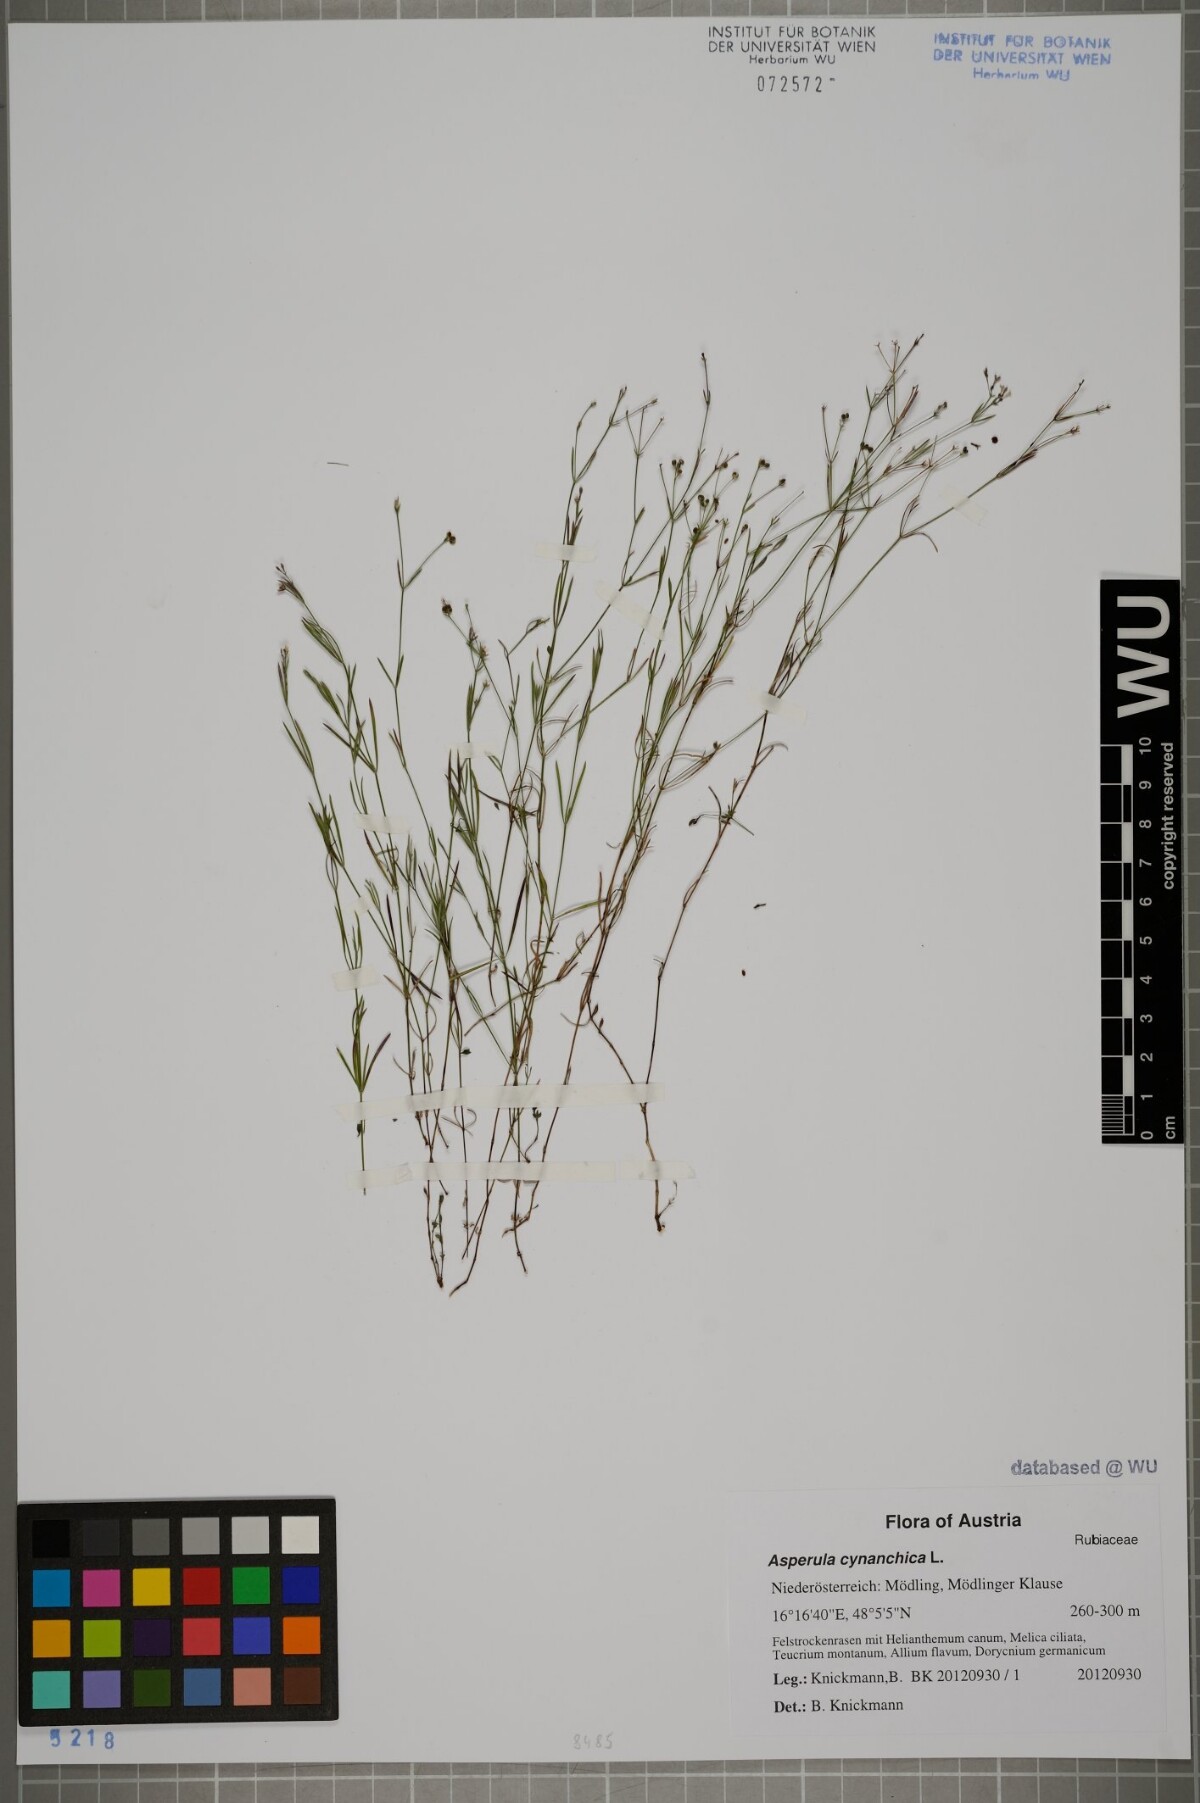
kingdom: Plantae
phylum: Tracheophyta
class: Magnoliopsida
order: Gentianales
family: Rubiaceae
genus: Cynanchica
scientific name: Cynanchica pyrenaica
